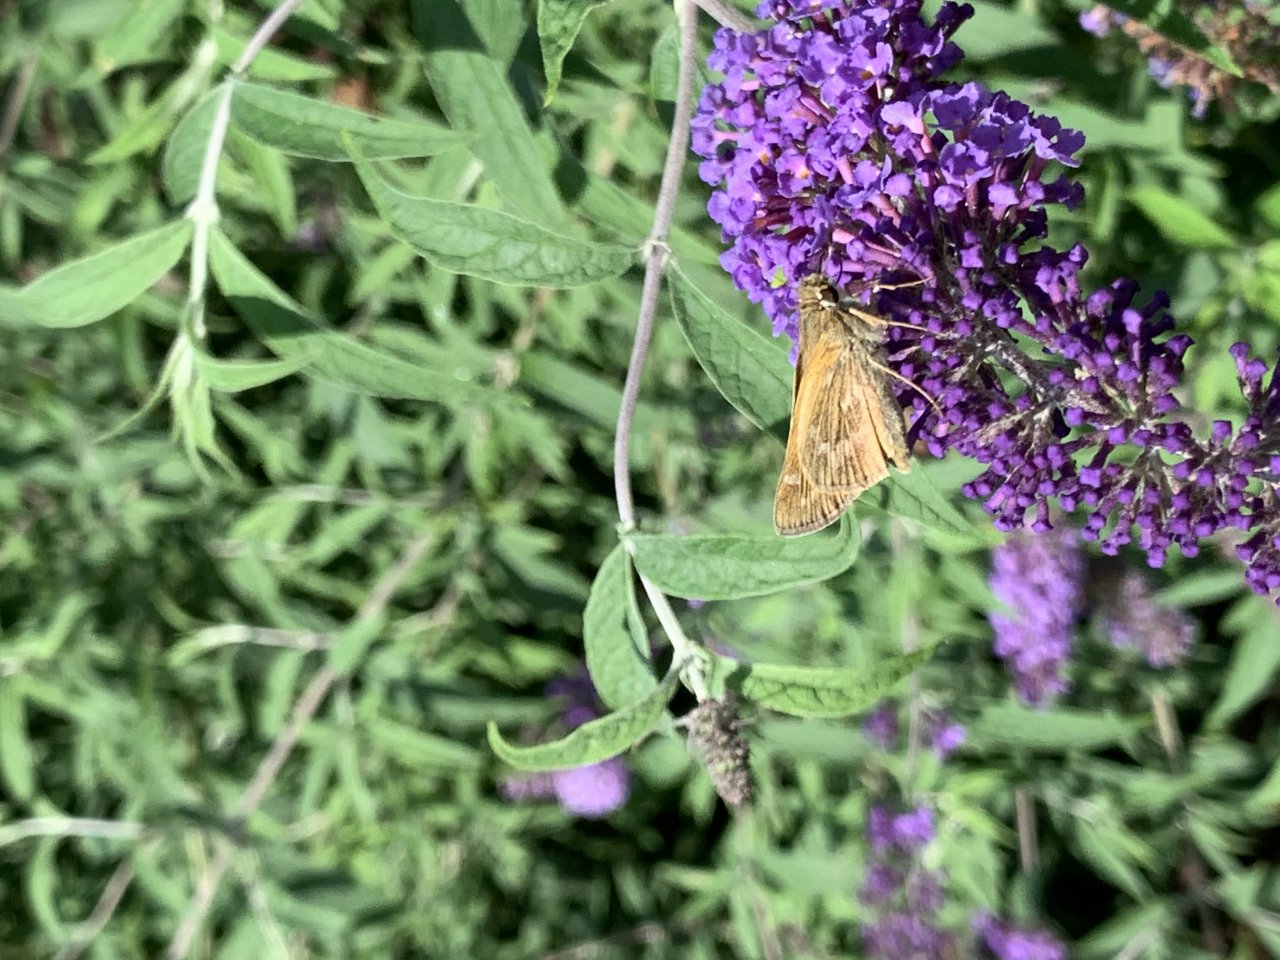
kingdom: Animalia
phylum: Arthropoda
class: Insecta
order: Lepidoptera
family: Hesperiidae
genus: Atalopedes
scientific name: Atalopedes campestris
